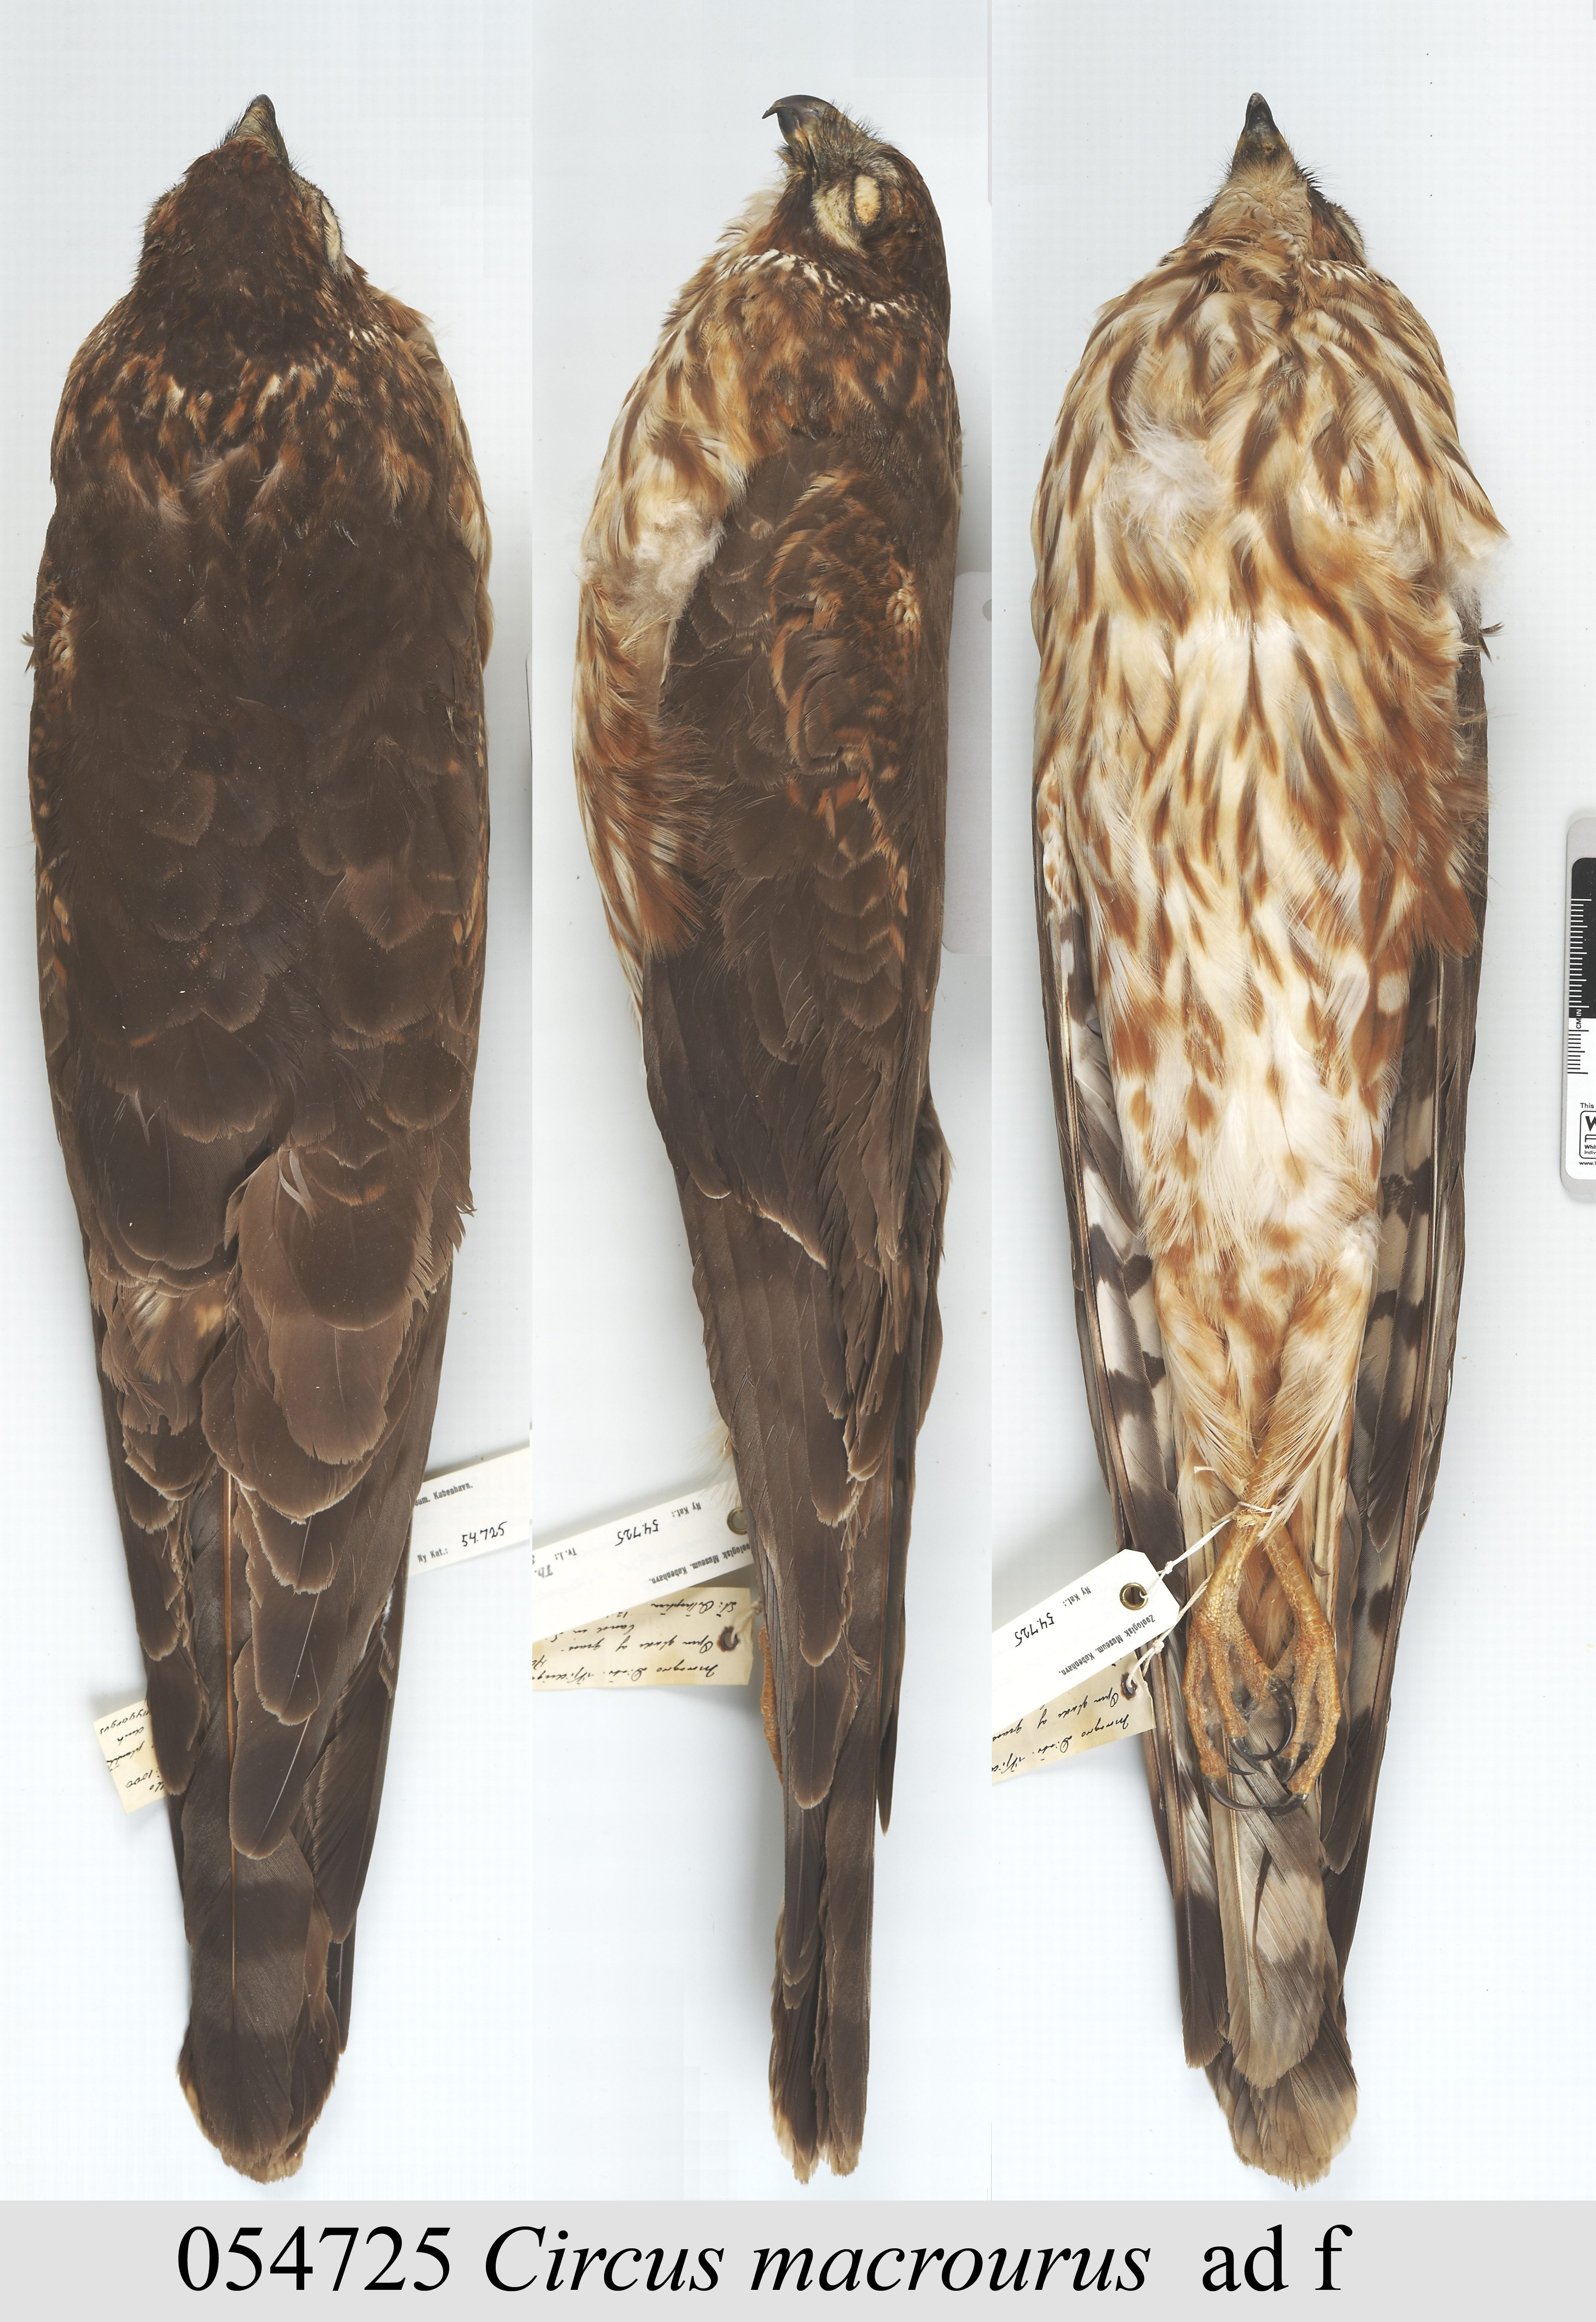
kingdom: Animalia
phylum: Chordata
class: Aves
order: Accipitriformes
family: Accipitridae
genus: Circus
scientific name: Circus macrourus
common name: Pallid harrier
